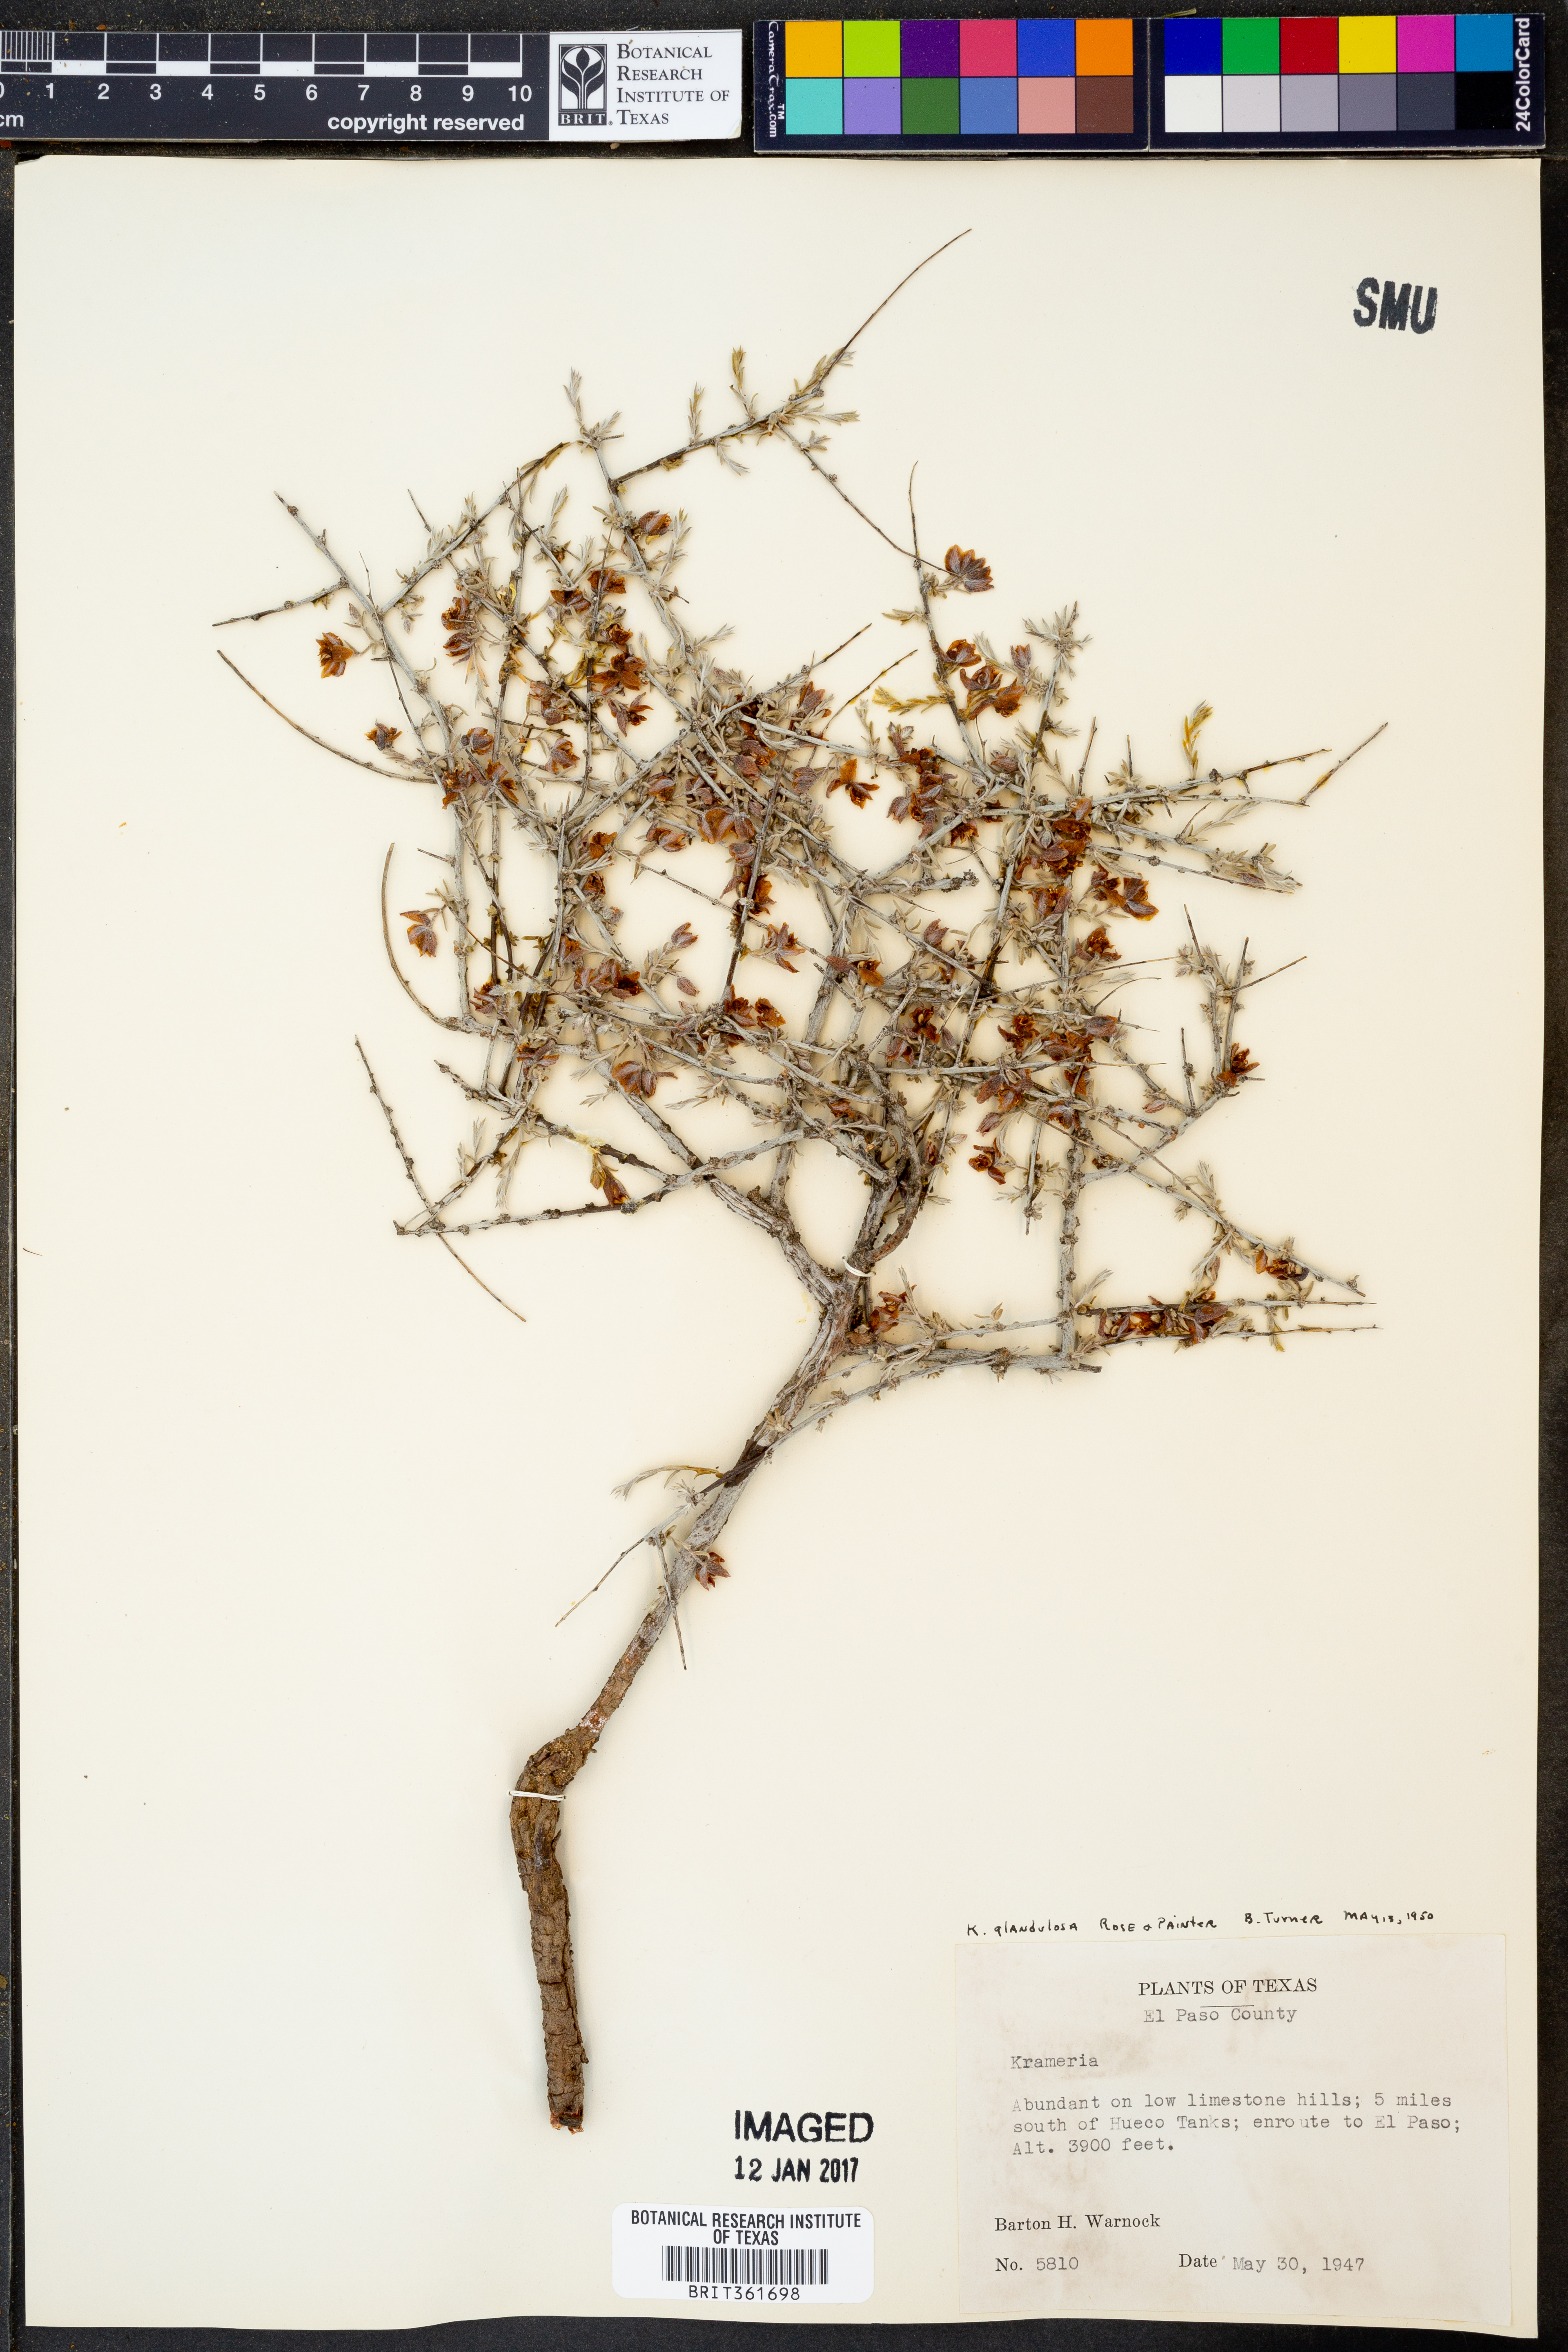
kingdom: Plantae
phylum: Tracheophyta
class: Magnoliopsida
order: Zygophyllales
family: Krameriaceae
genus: Krameria
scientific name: Krameria erecta
